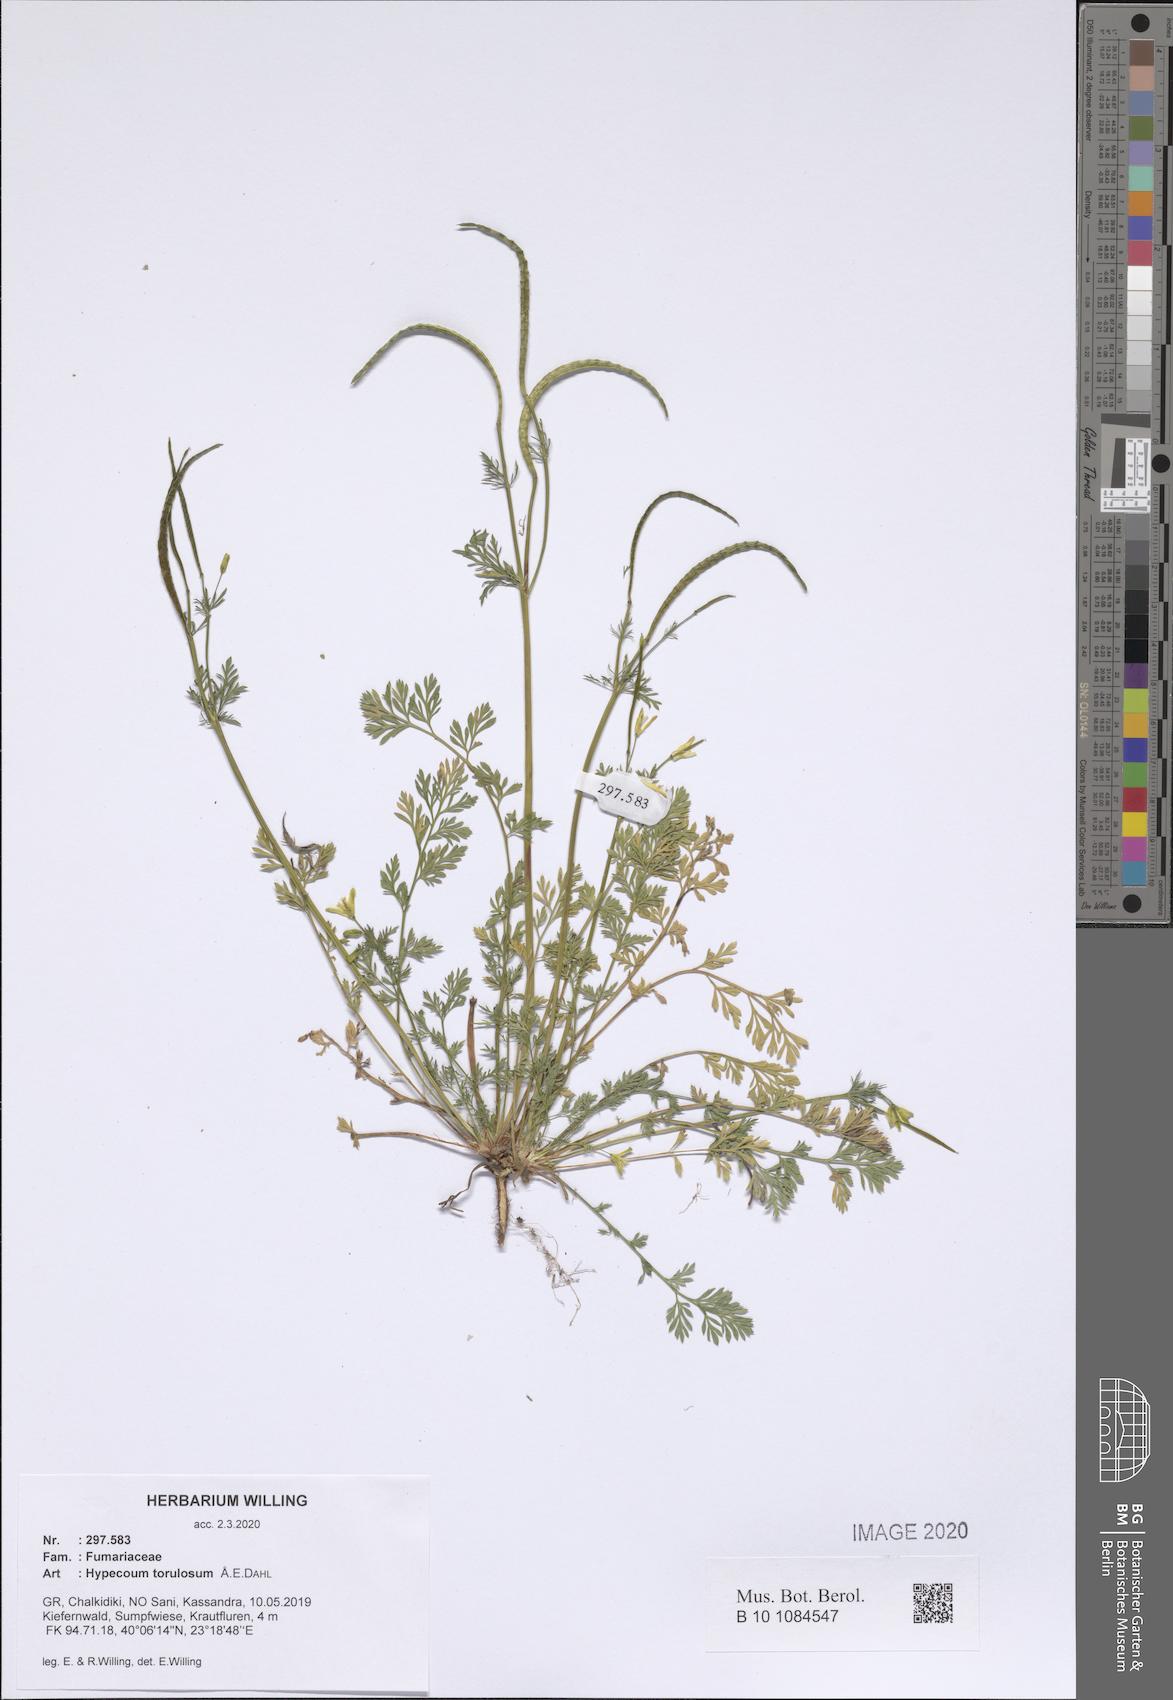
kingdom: Plantae
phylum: Tracheophyta
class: Magnoliopsida
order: Ranunculales
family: Papaveraceae
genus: Hypecoum
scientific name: Hypecoum torulosum
